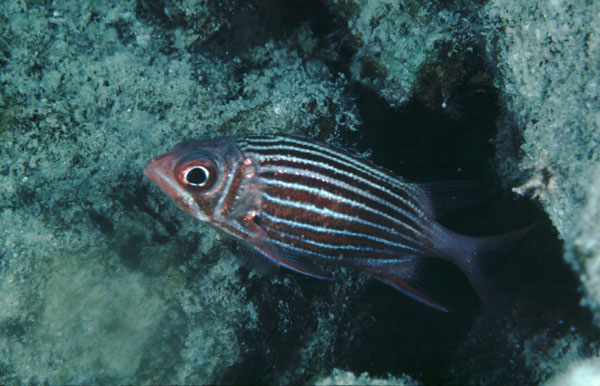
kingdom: Animalia
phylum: Chordata
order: Beryciformes
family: Holocentridae
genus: Sargocentron
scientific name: Sargocentron diadema
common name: Crown squirrelfish
